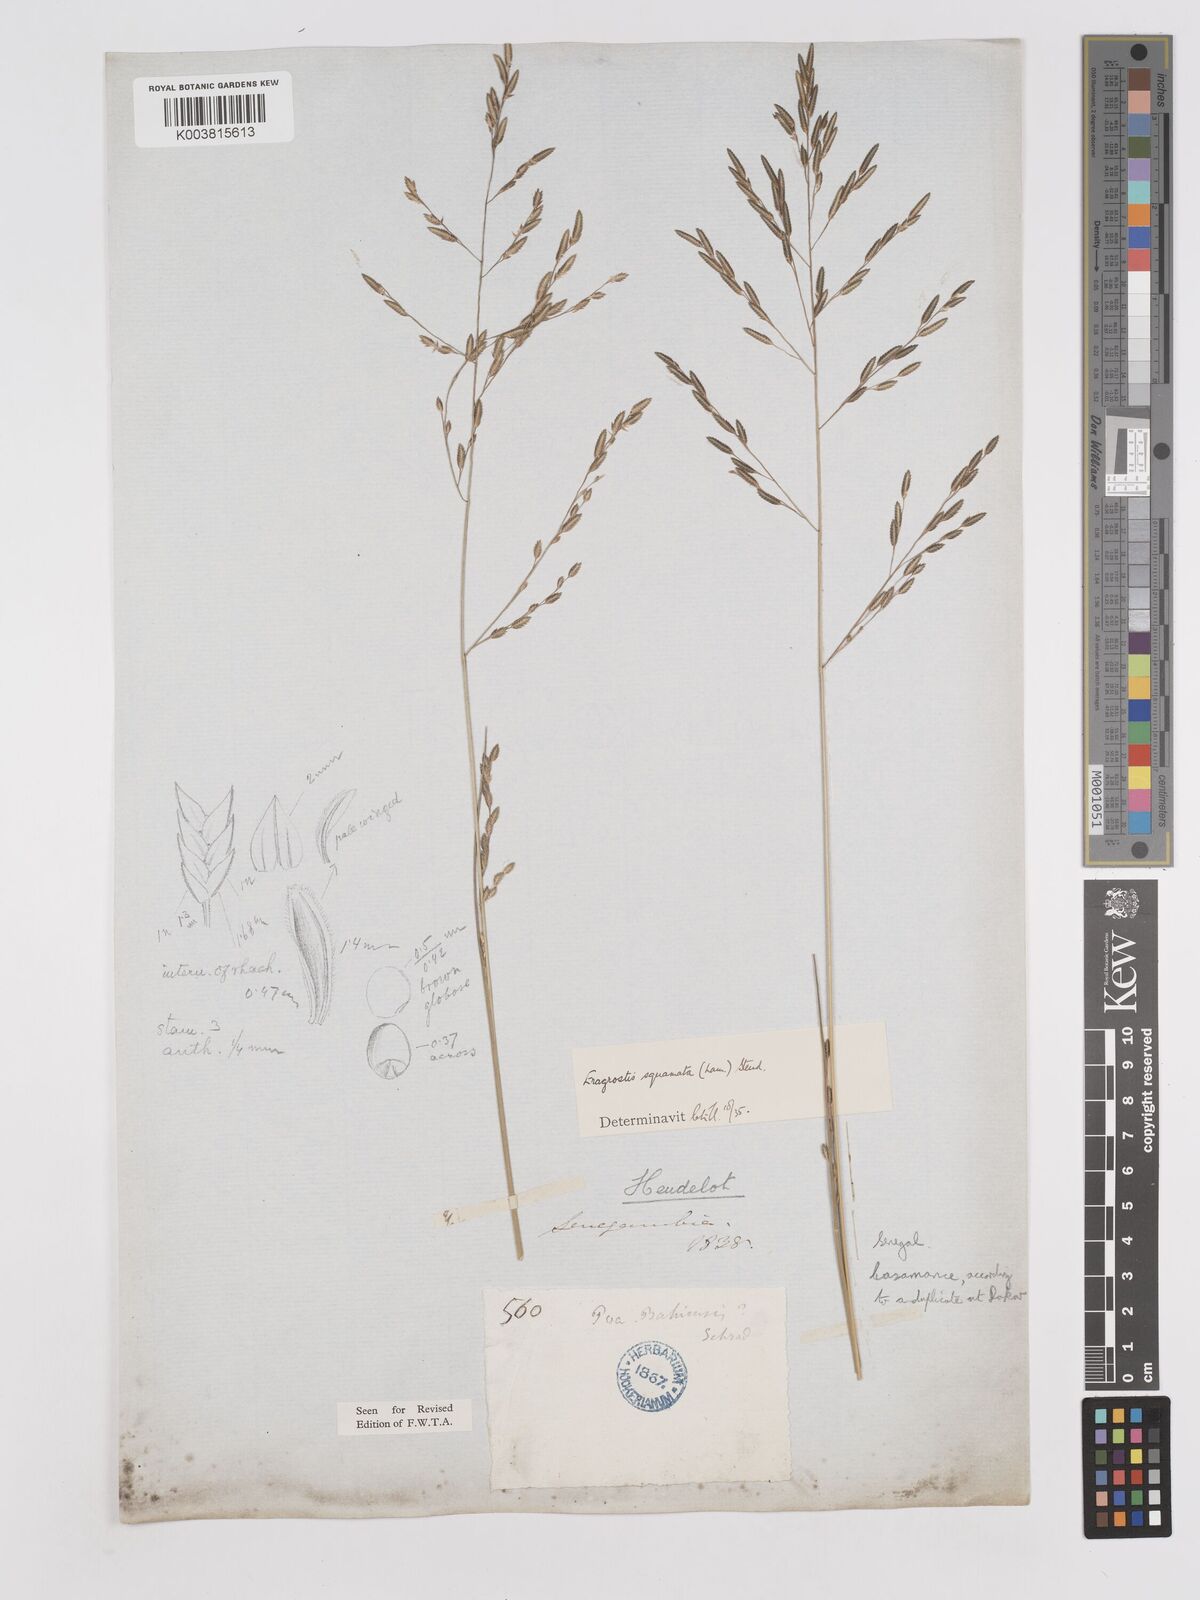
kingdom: Plantae
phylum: Tracheophyta
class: Liliopsida
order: Poales
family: Poaceae
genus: Eragrostis
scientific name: Eragrostis squamata
